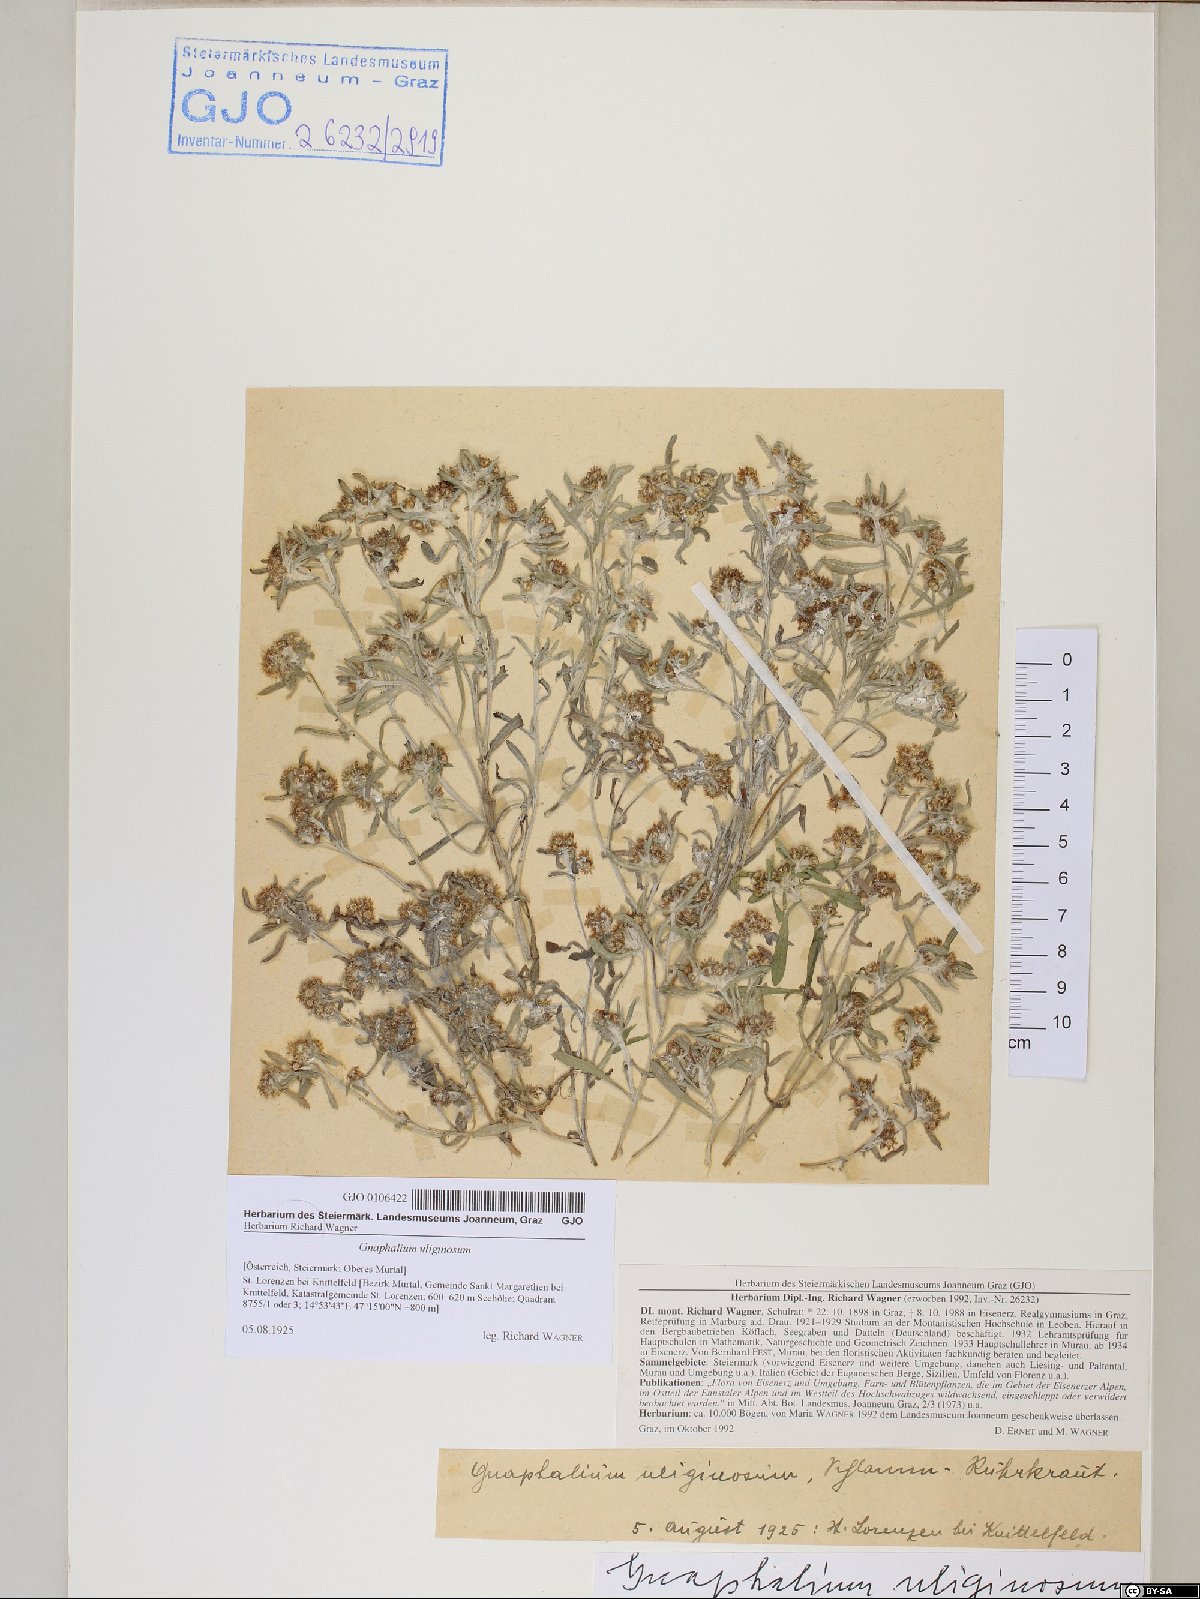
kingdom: Plantae
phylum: Tracheophyta
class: Magnoliopsida
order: Asterales
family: Asteraceae
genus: Gnaphalium
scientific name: Gnaphalium uliginosum
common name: Marsh cudweed
